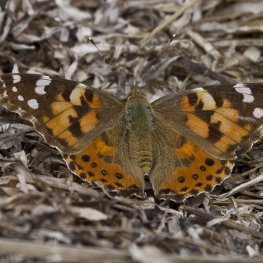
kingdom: Animalia
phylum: Arthropoda
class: Insecta
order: Lepidoptera
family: Nymphalidae
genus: Vanessa
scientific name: Vanessa cardui
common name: Painted Lady
